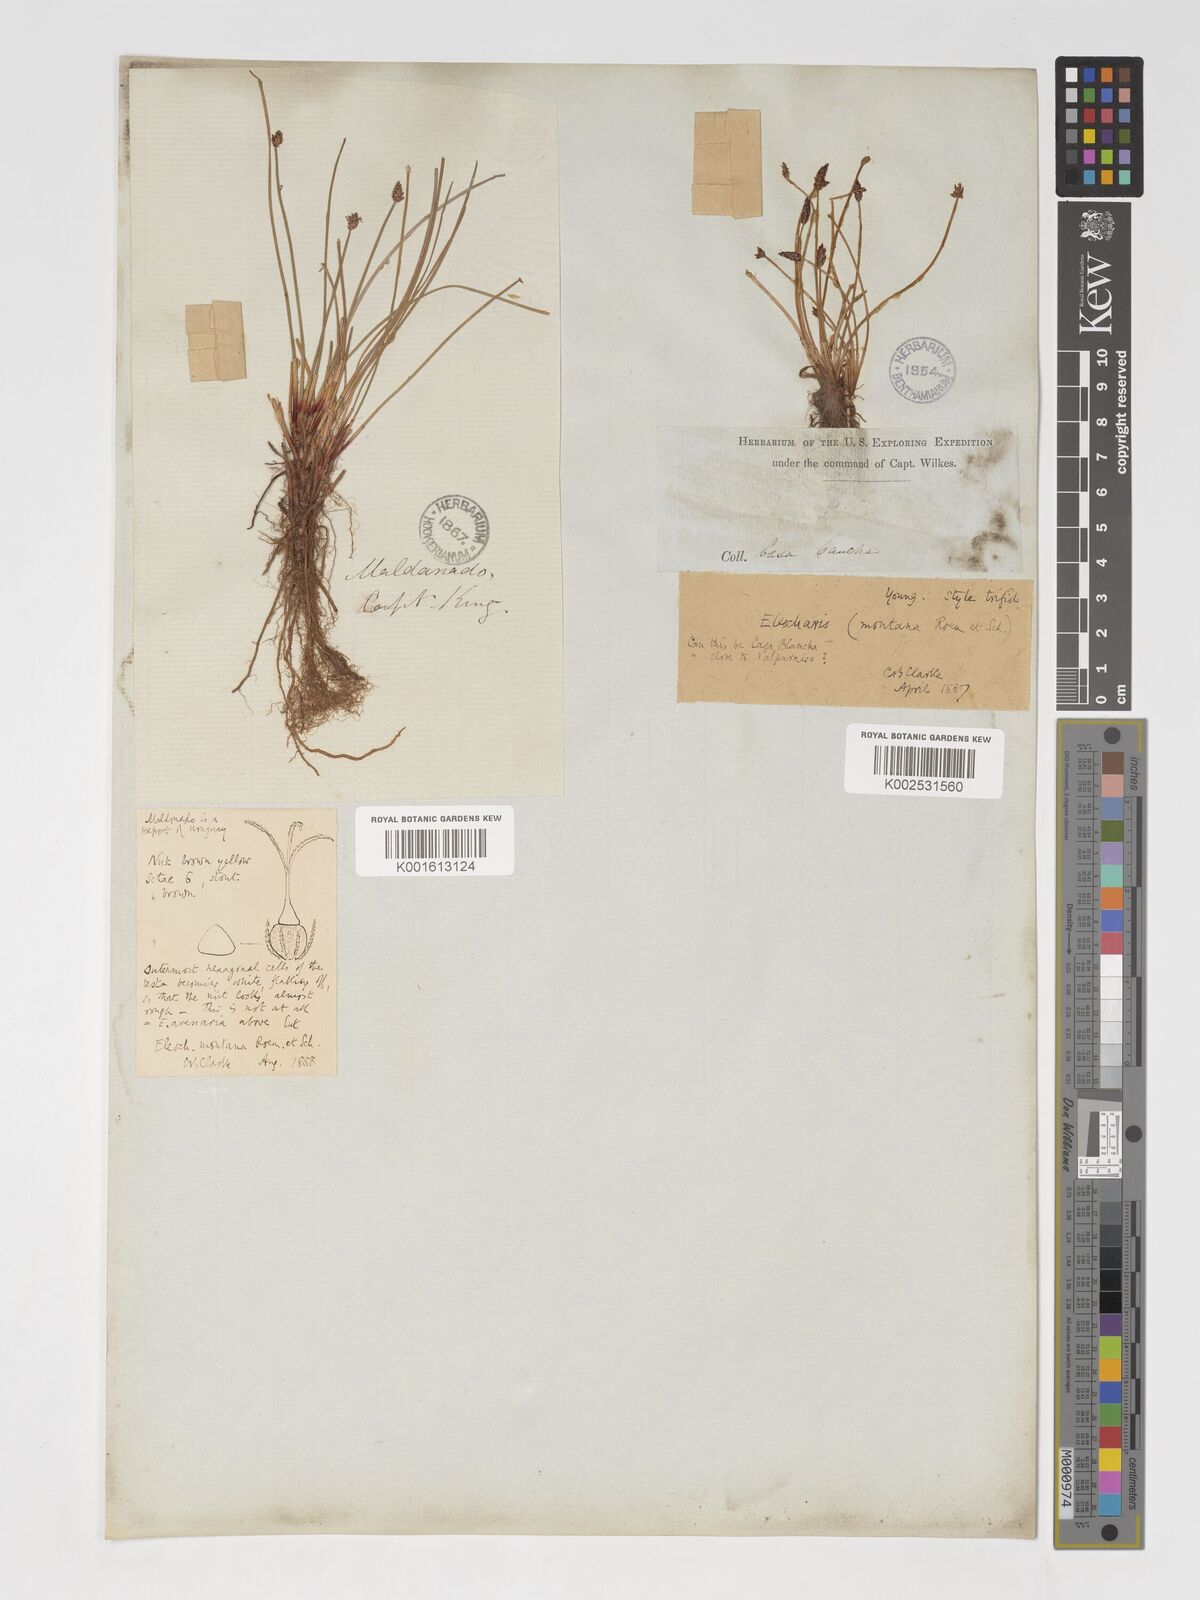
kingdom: Plantae
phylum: Tracheophyta
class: Liliopsida
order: Poales
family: Cyperaceae
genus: Eleocharis
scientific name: Eleocharis montana
